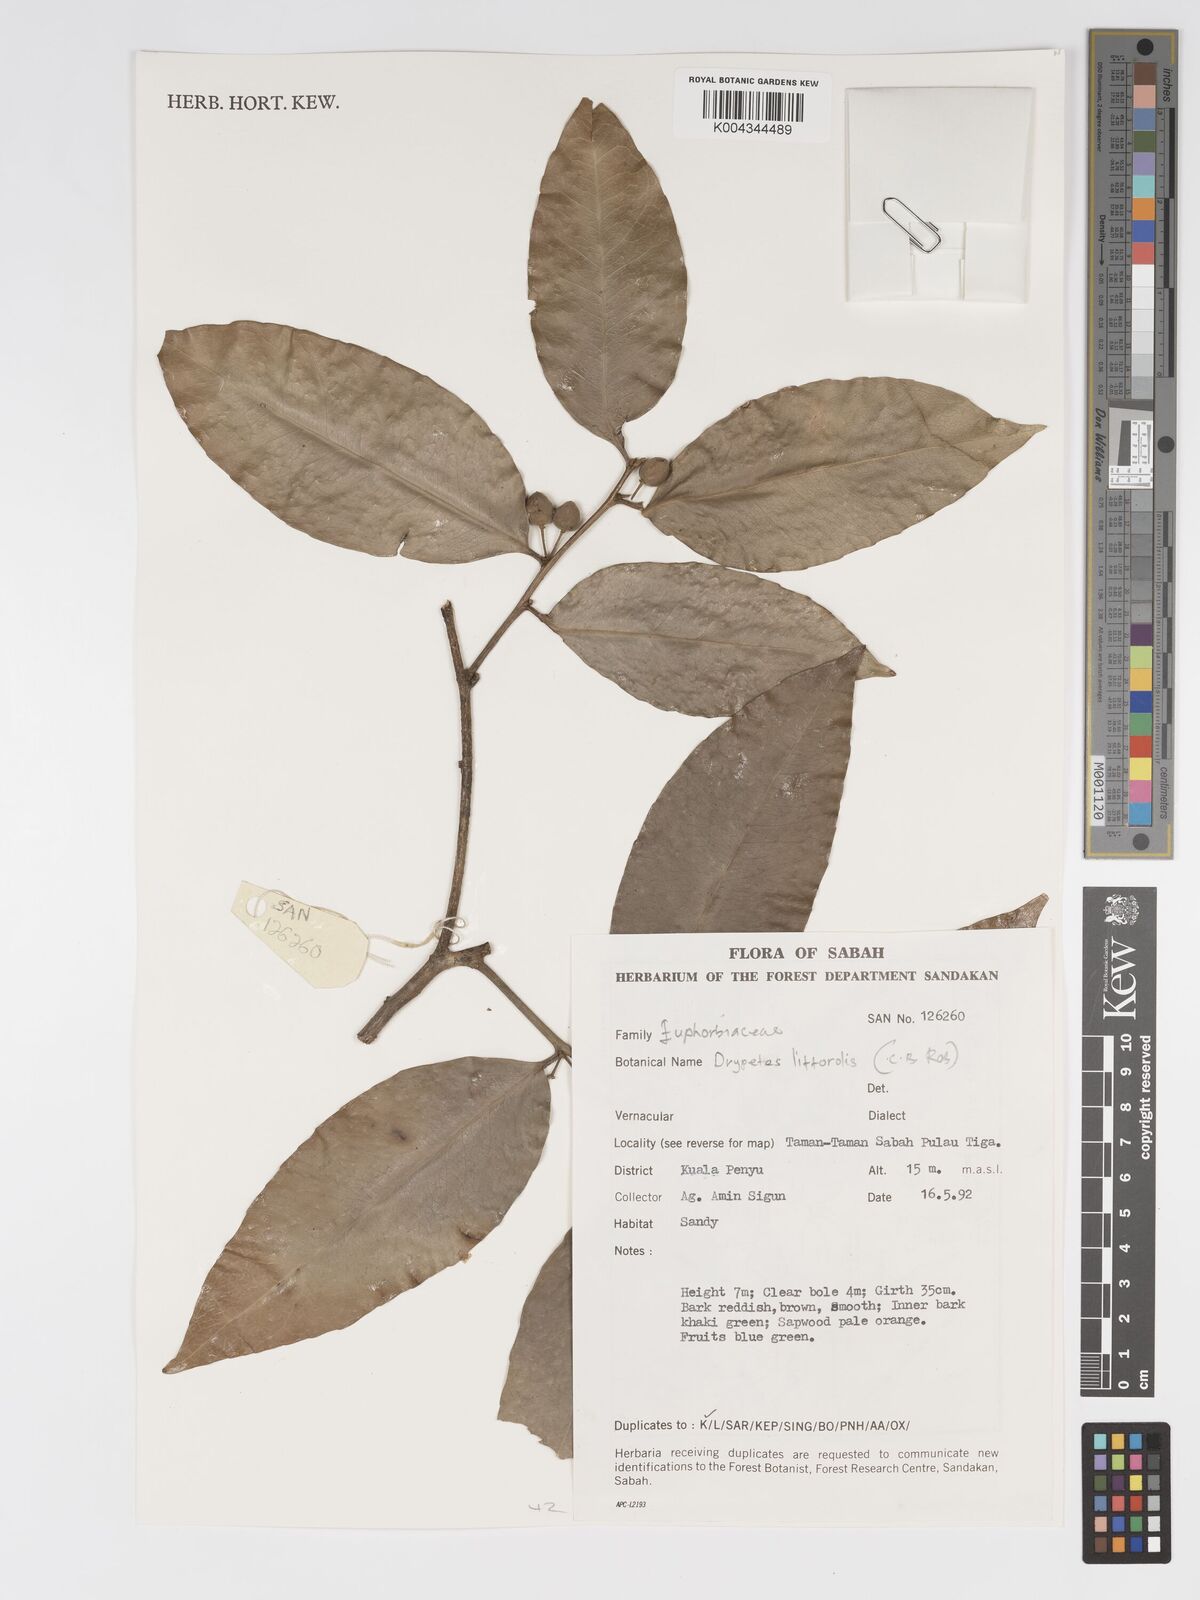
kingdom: Plantae
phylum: Tracheophyta
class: Magnoliopsida
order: Malpighiales
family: Putranjivaceae
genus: Drypetes
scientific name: Drypetes littoralis
